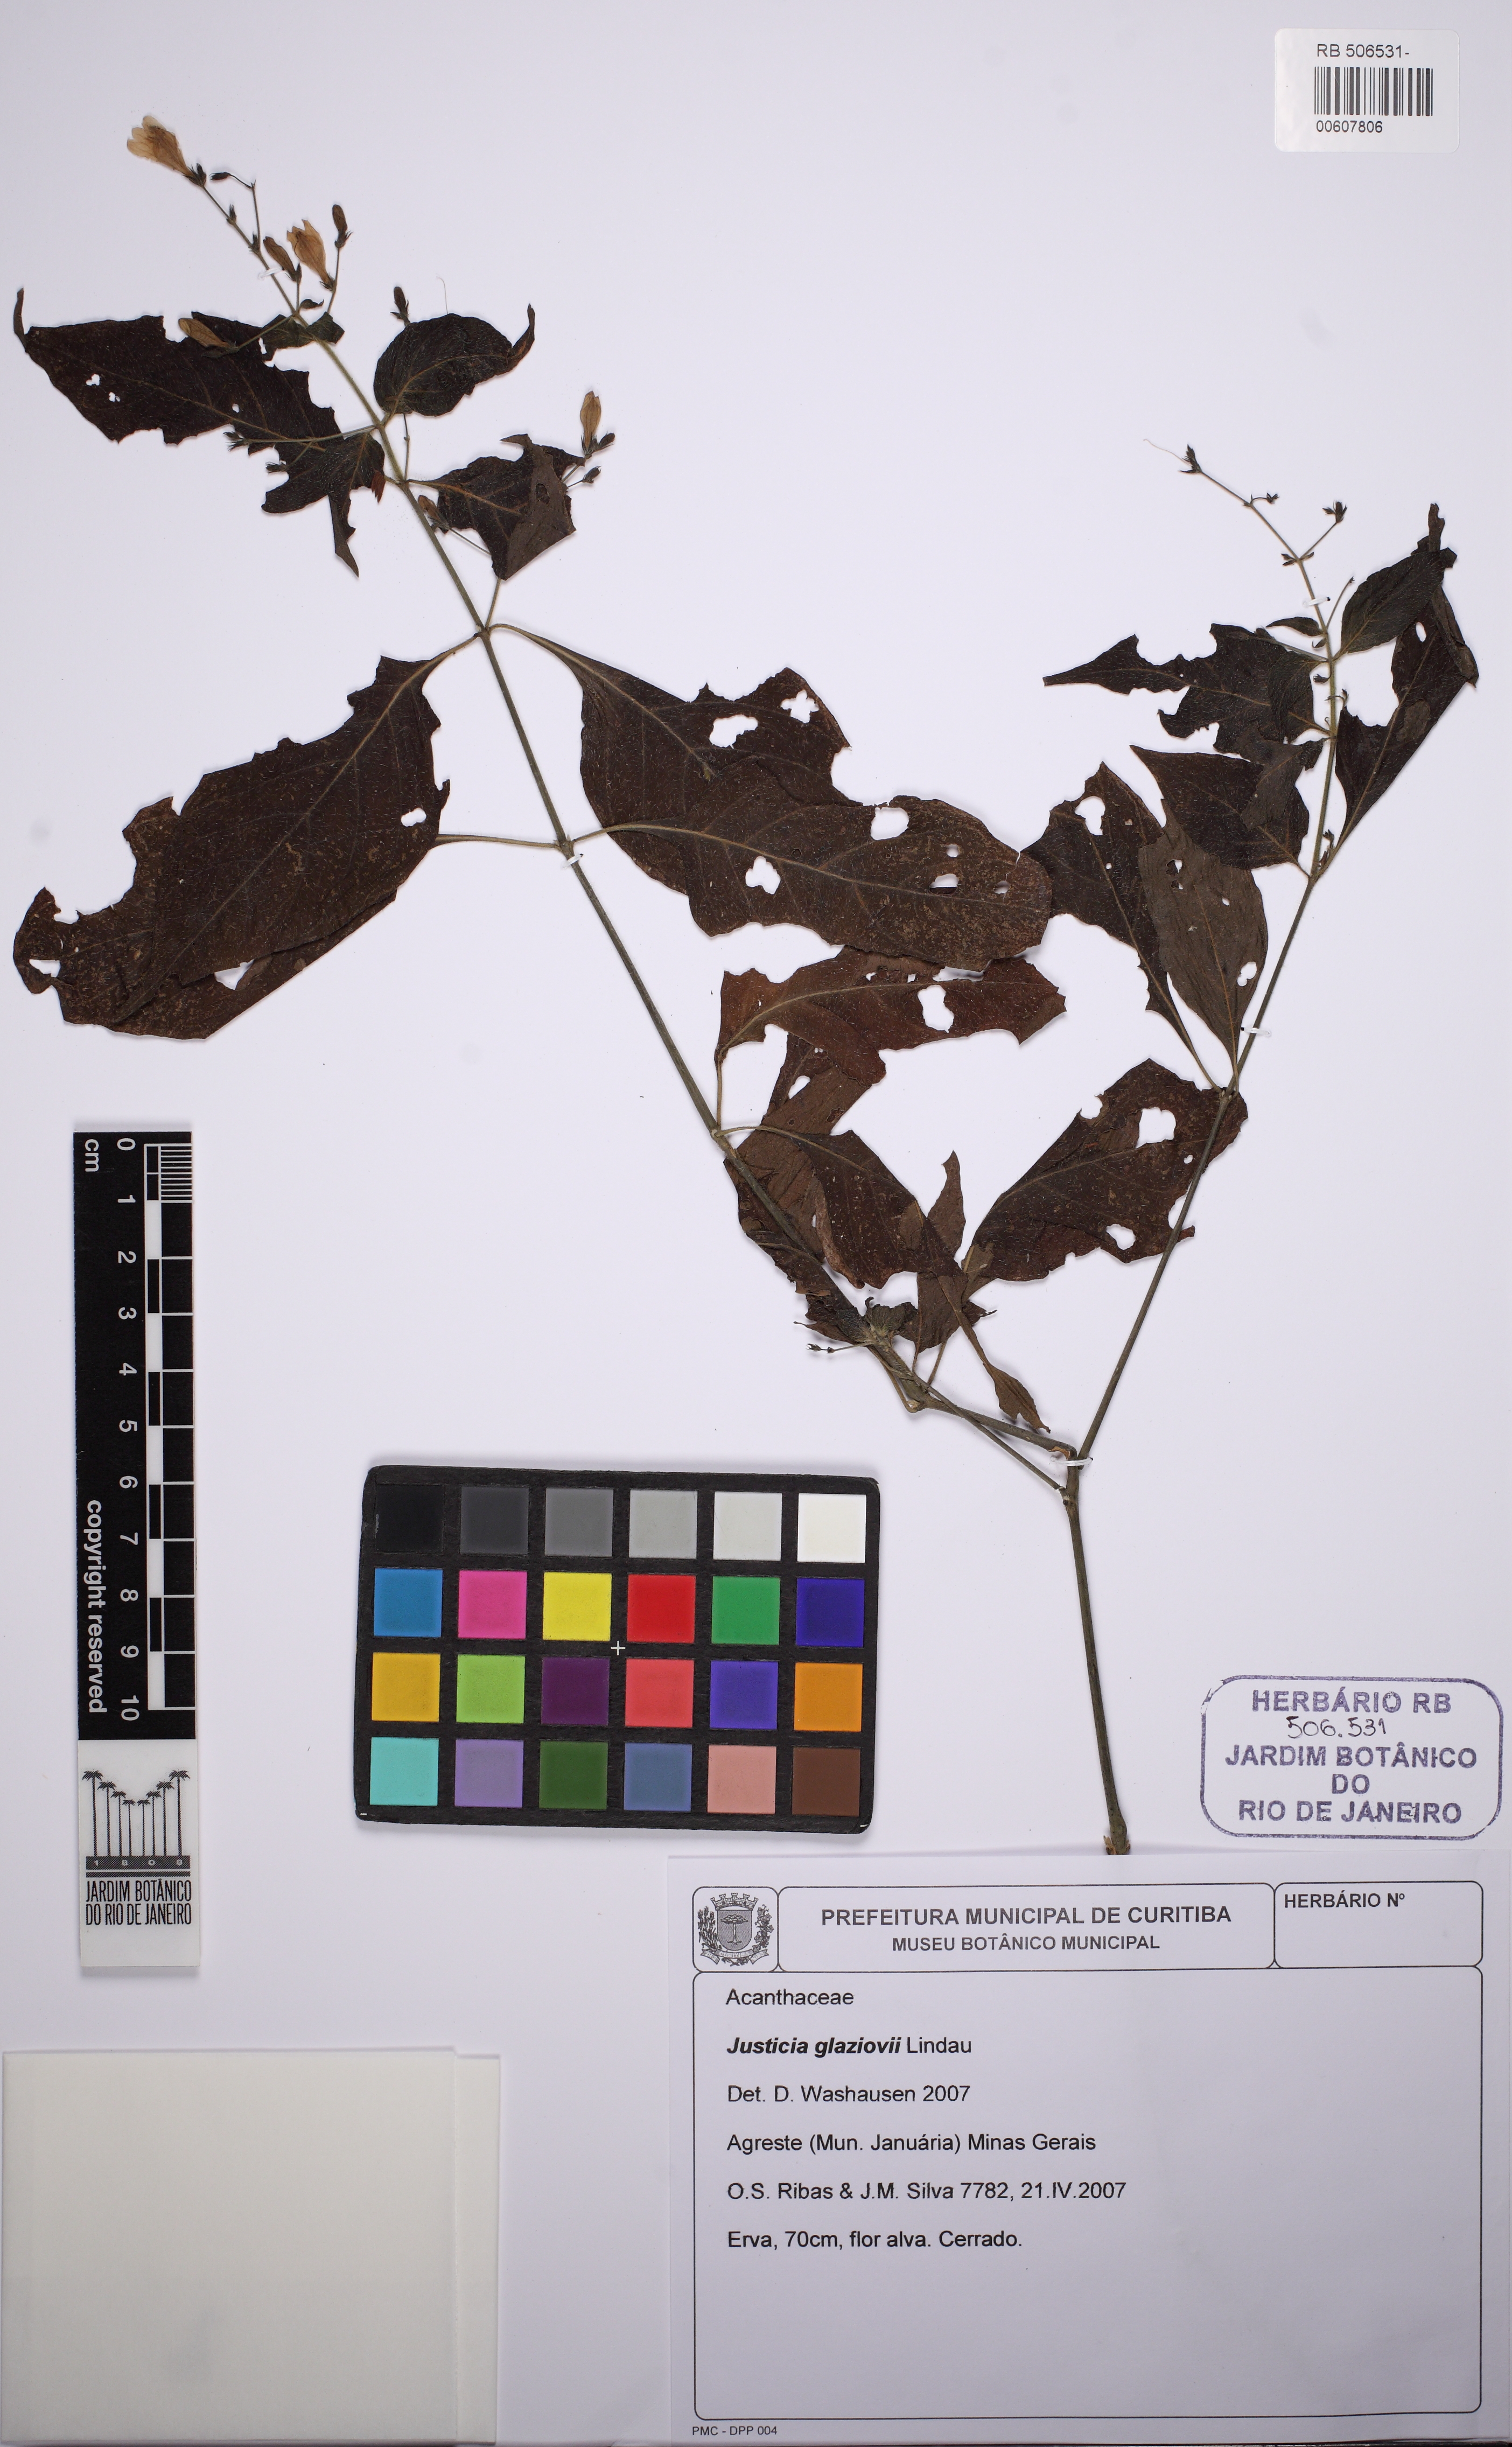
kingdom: Plantae
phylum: Tracheophyta
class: Magnoliopsida
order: Lamiales
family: Acanthaceae
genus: Justicia
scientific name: Justicia rubriflora
